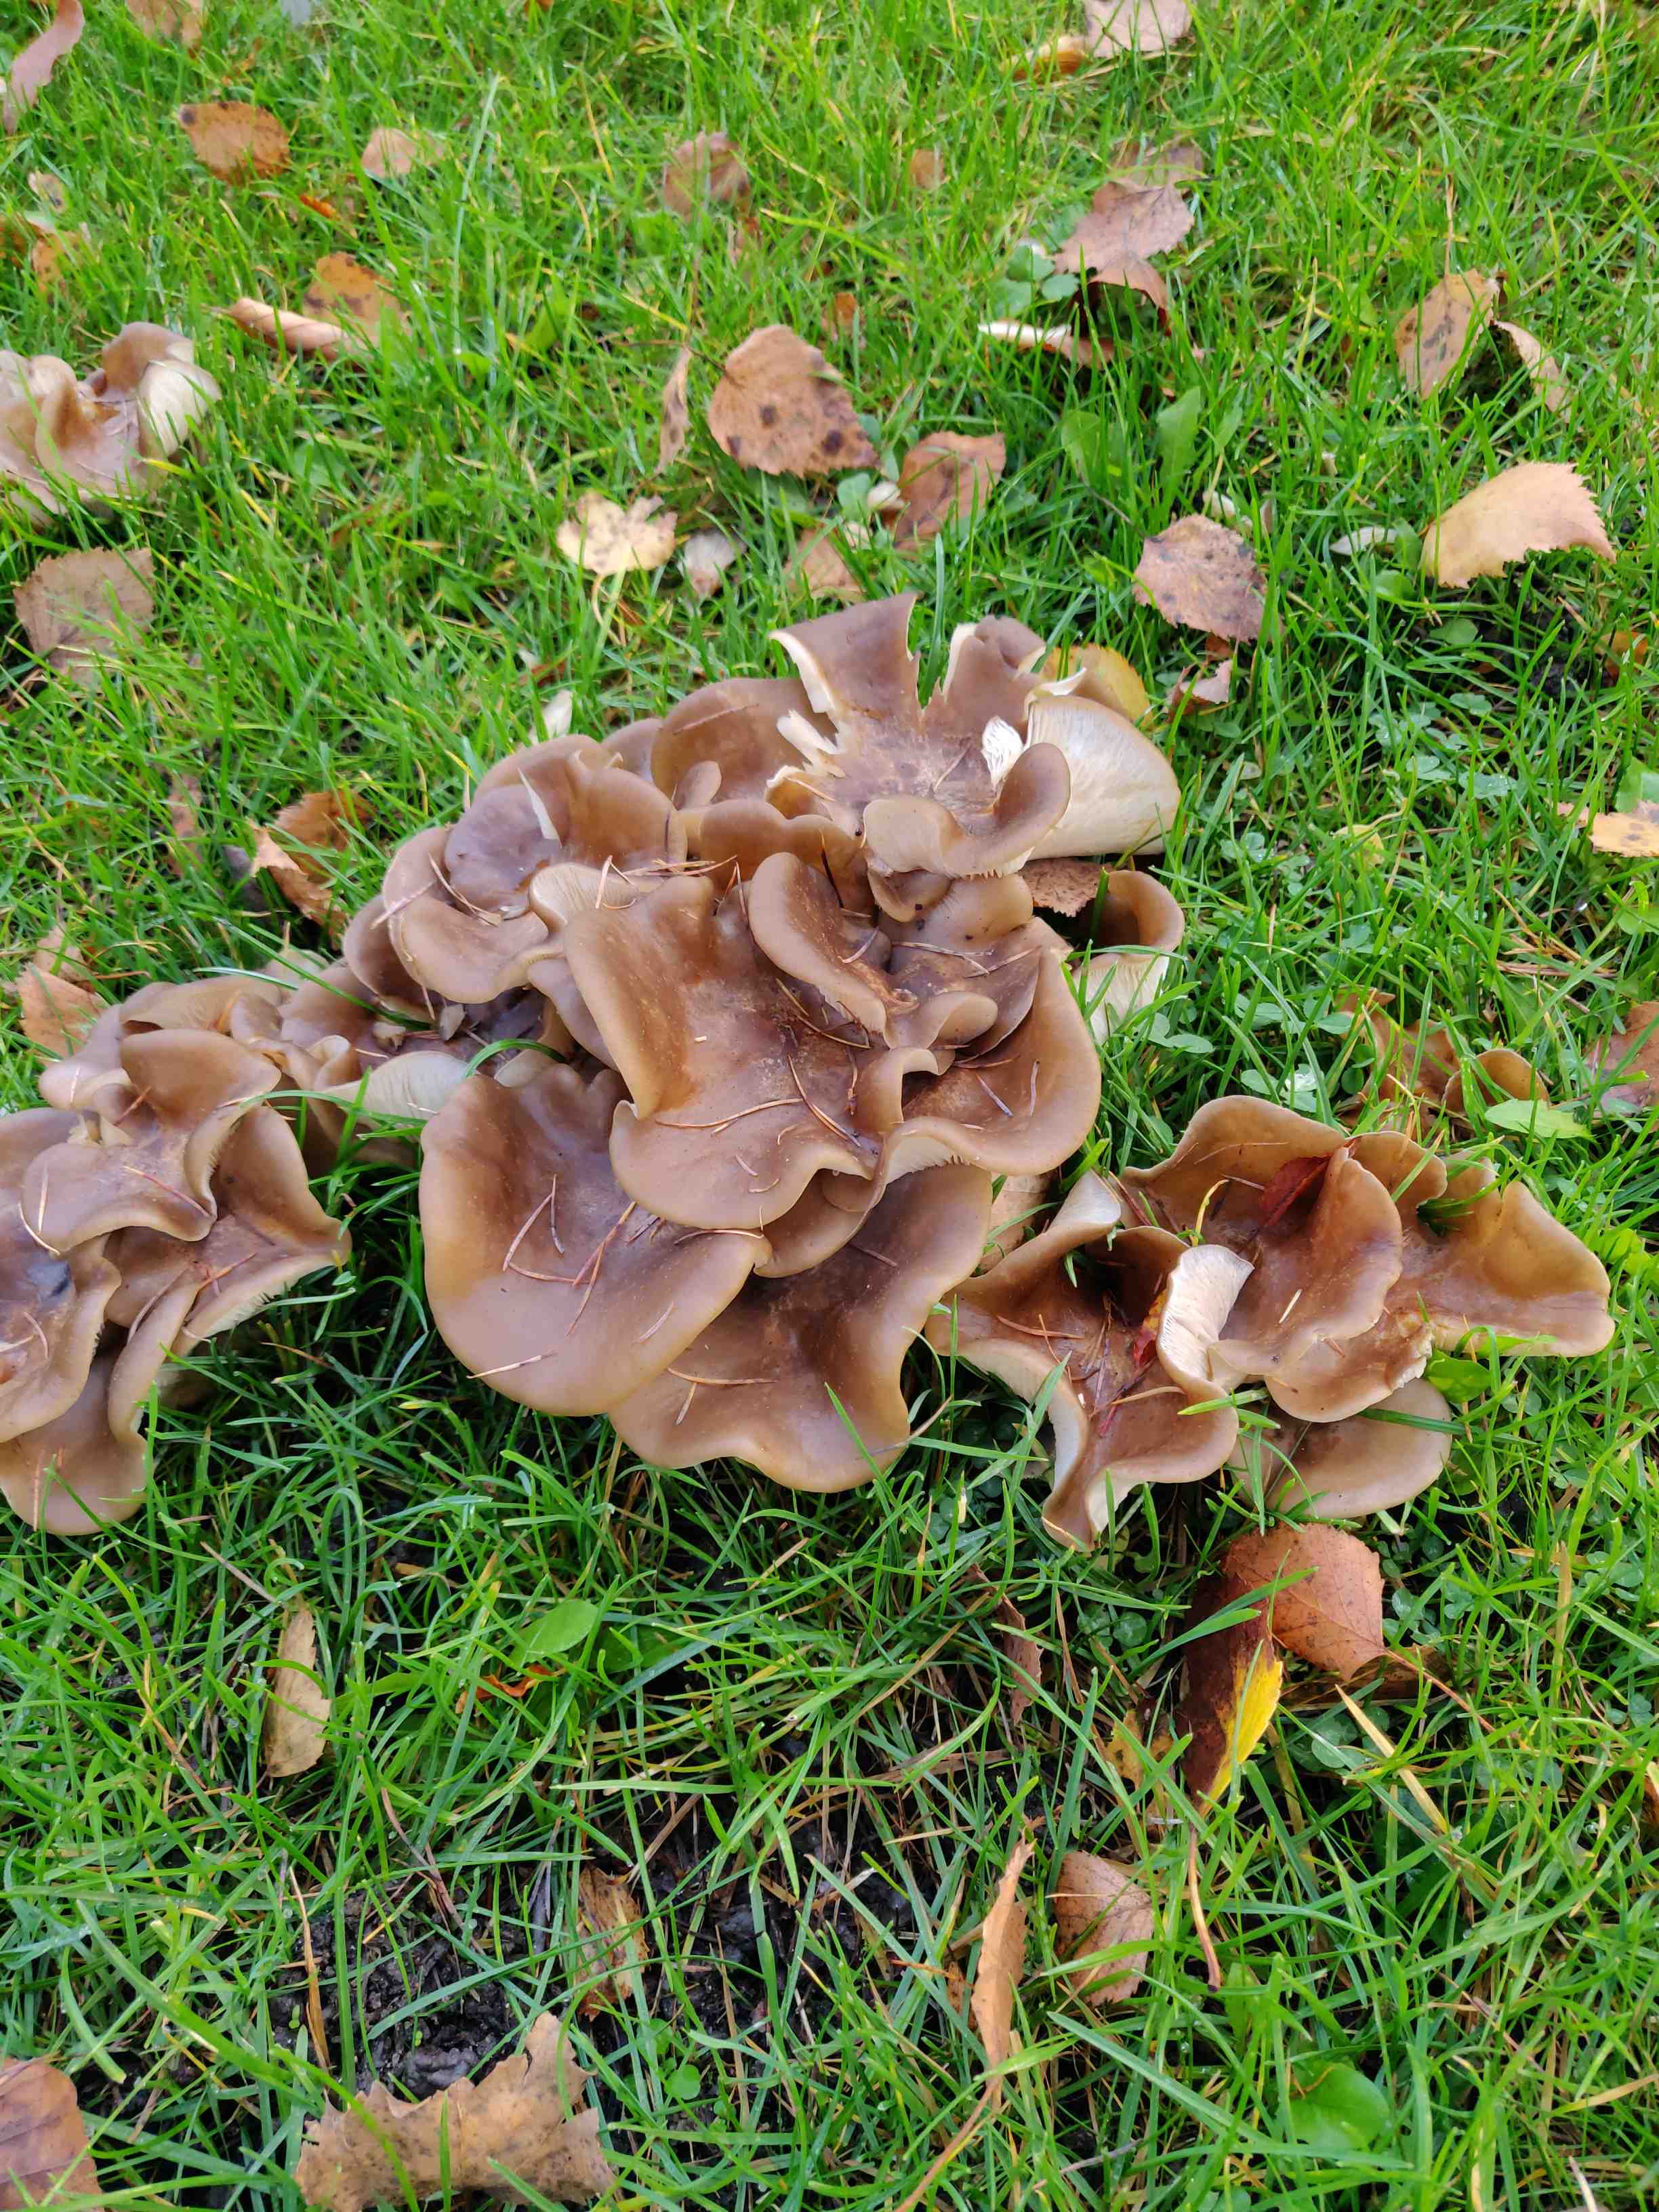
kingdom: Fungi
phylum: Basidiomycota
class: Agaricomycetes
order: Agaricales
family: Lyophyllaceae
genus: Lyophyllum
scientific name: Lyophyllum decastes
